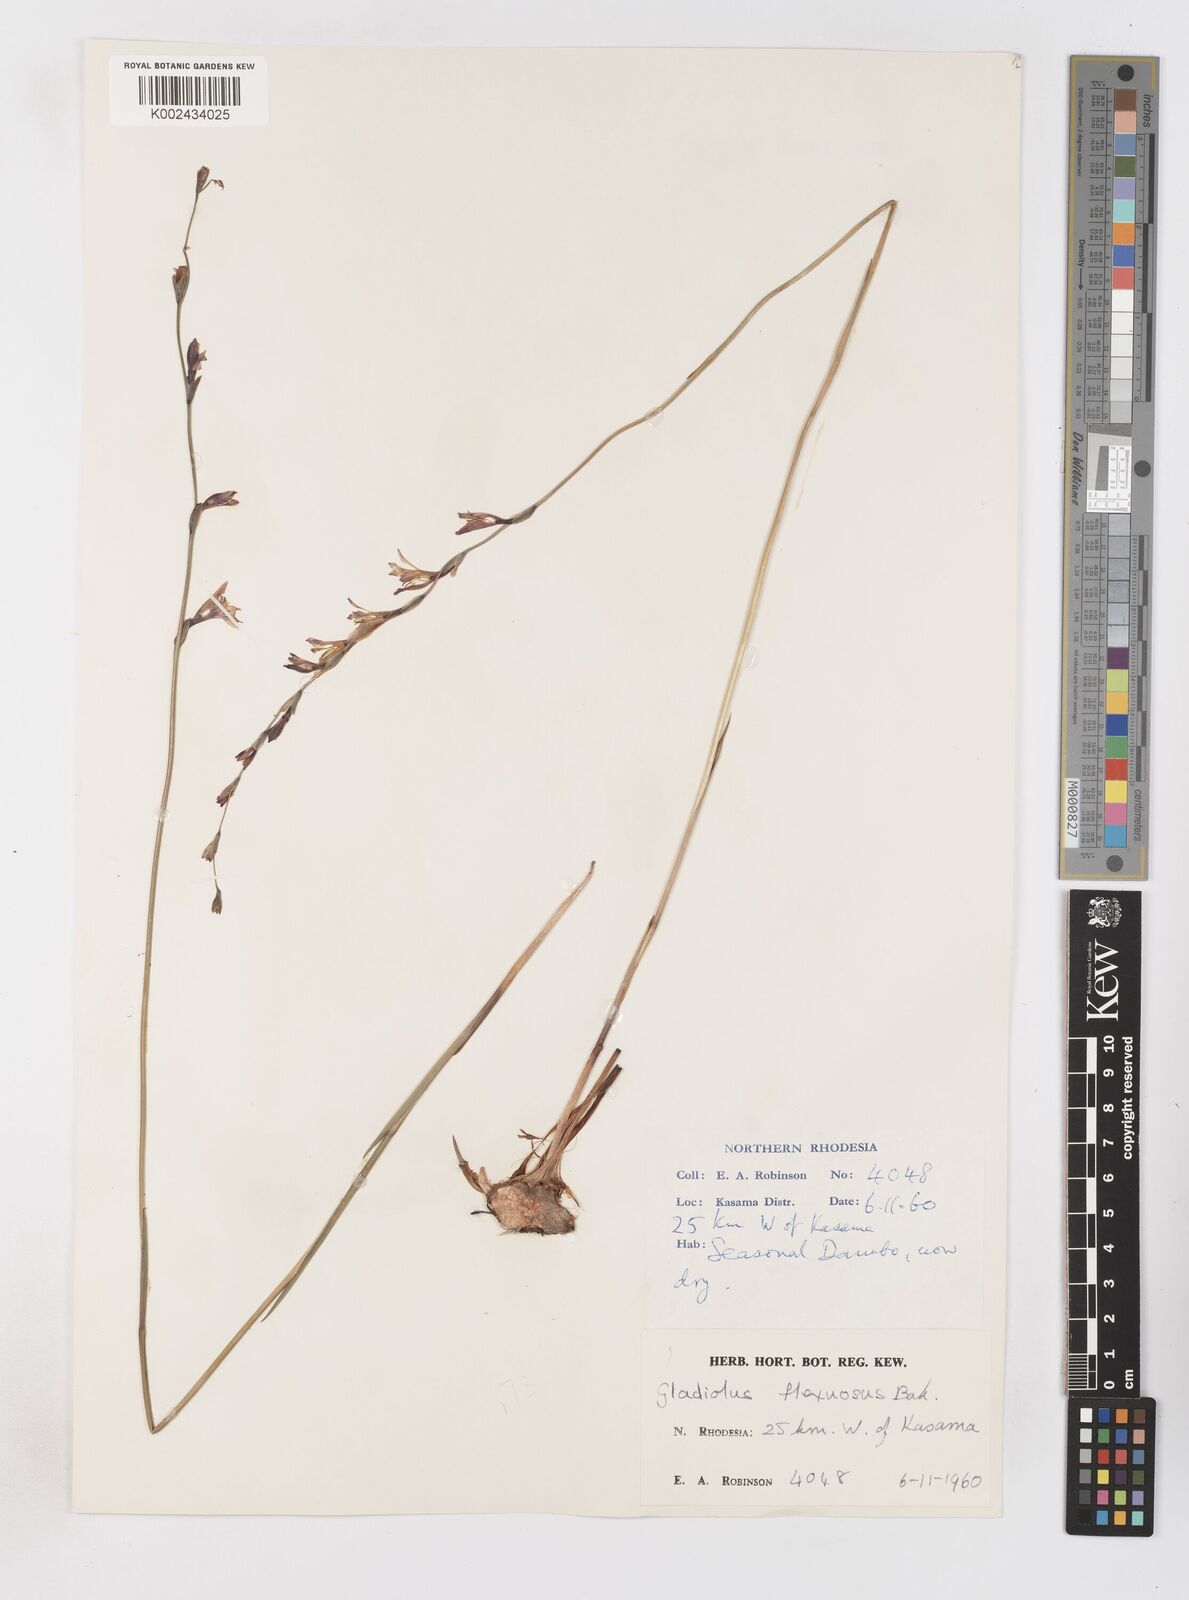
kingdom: Plantae
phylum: Tracheophyta
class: Liliopsida
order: Asparagales
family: Iridaceae
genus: Gladiolus
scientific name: Gladiolus atropurpureus
